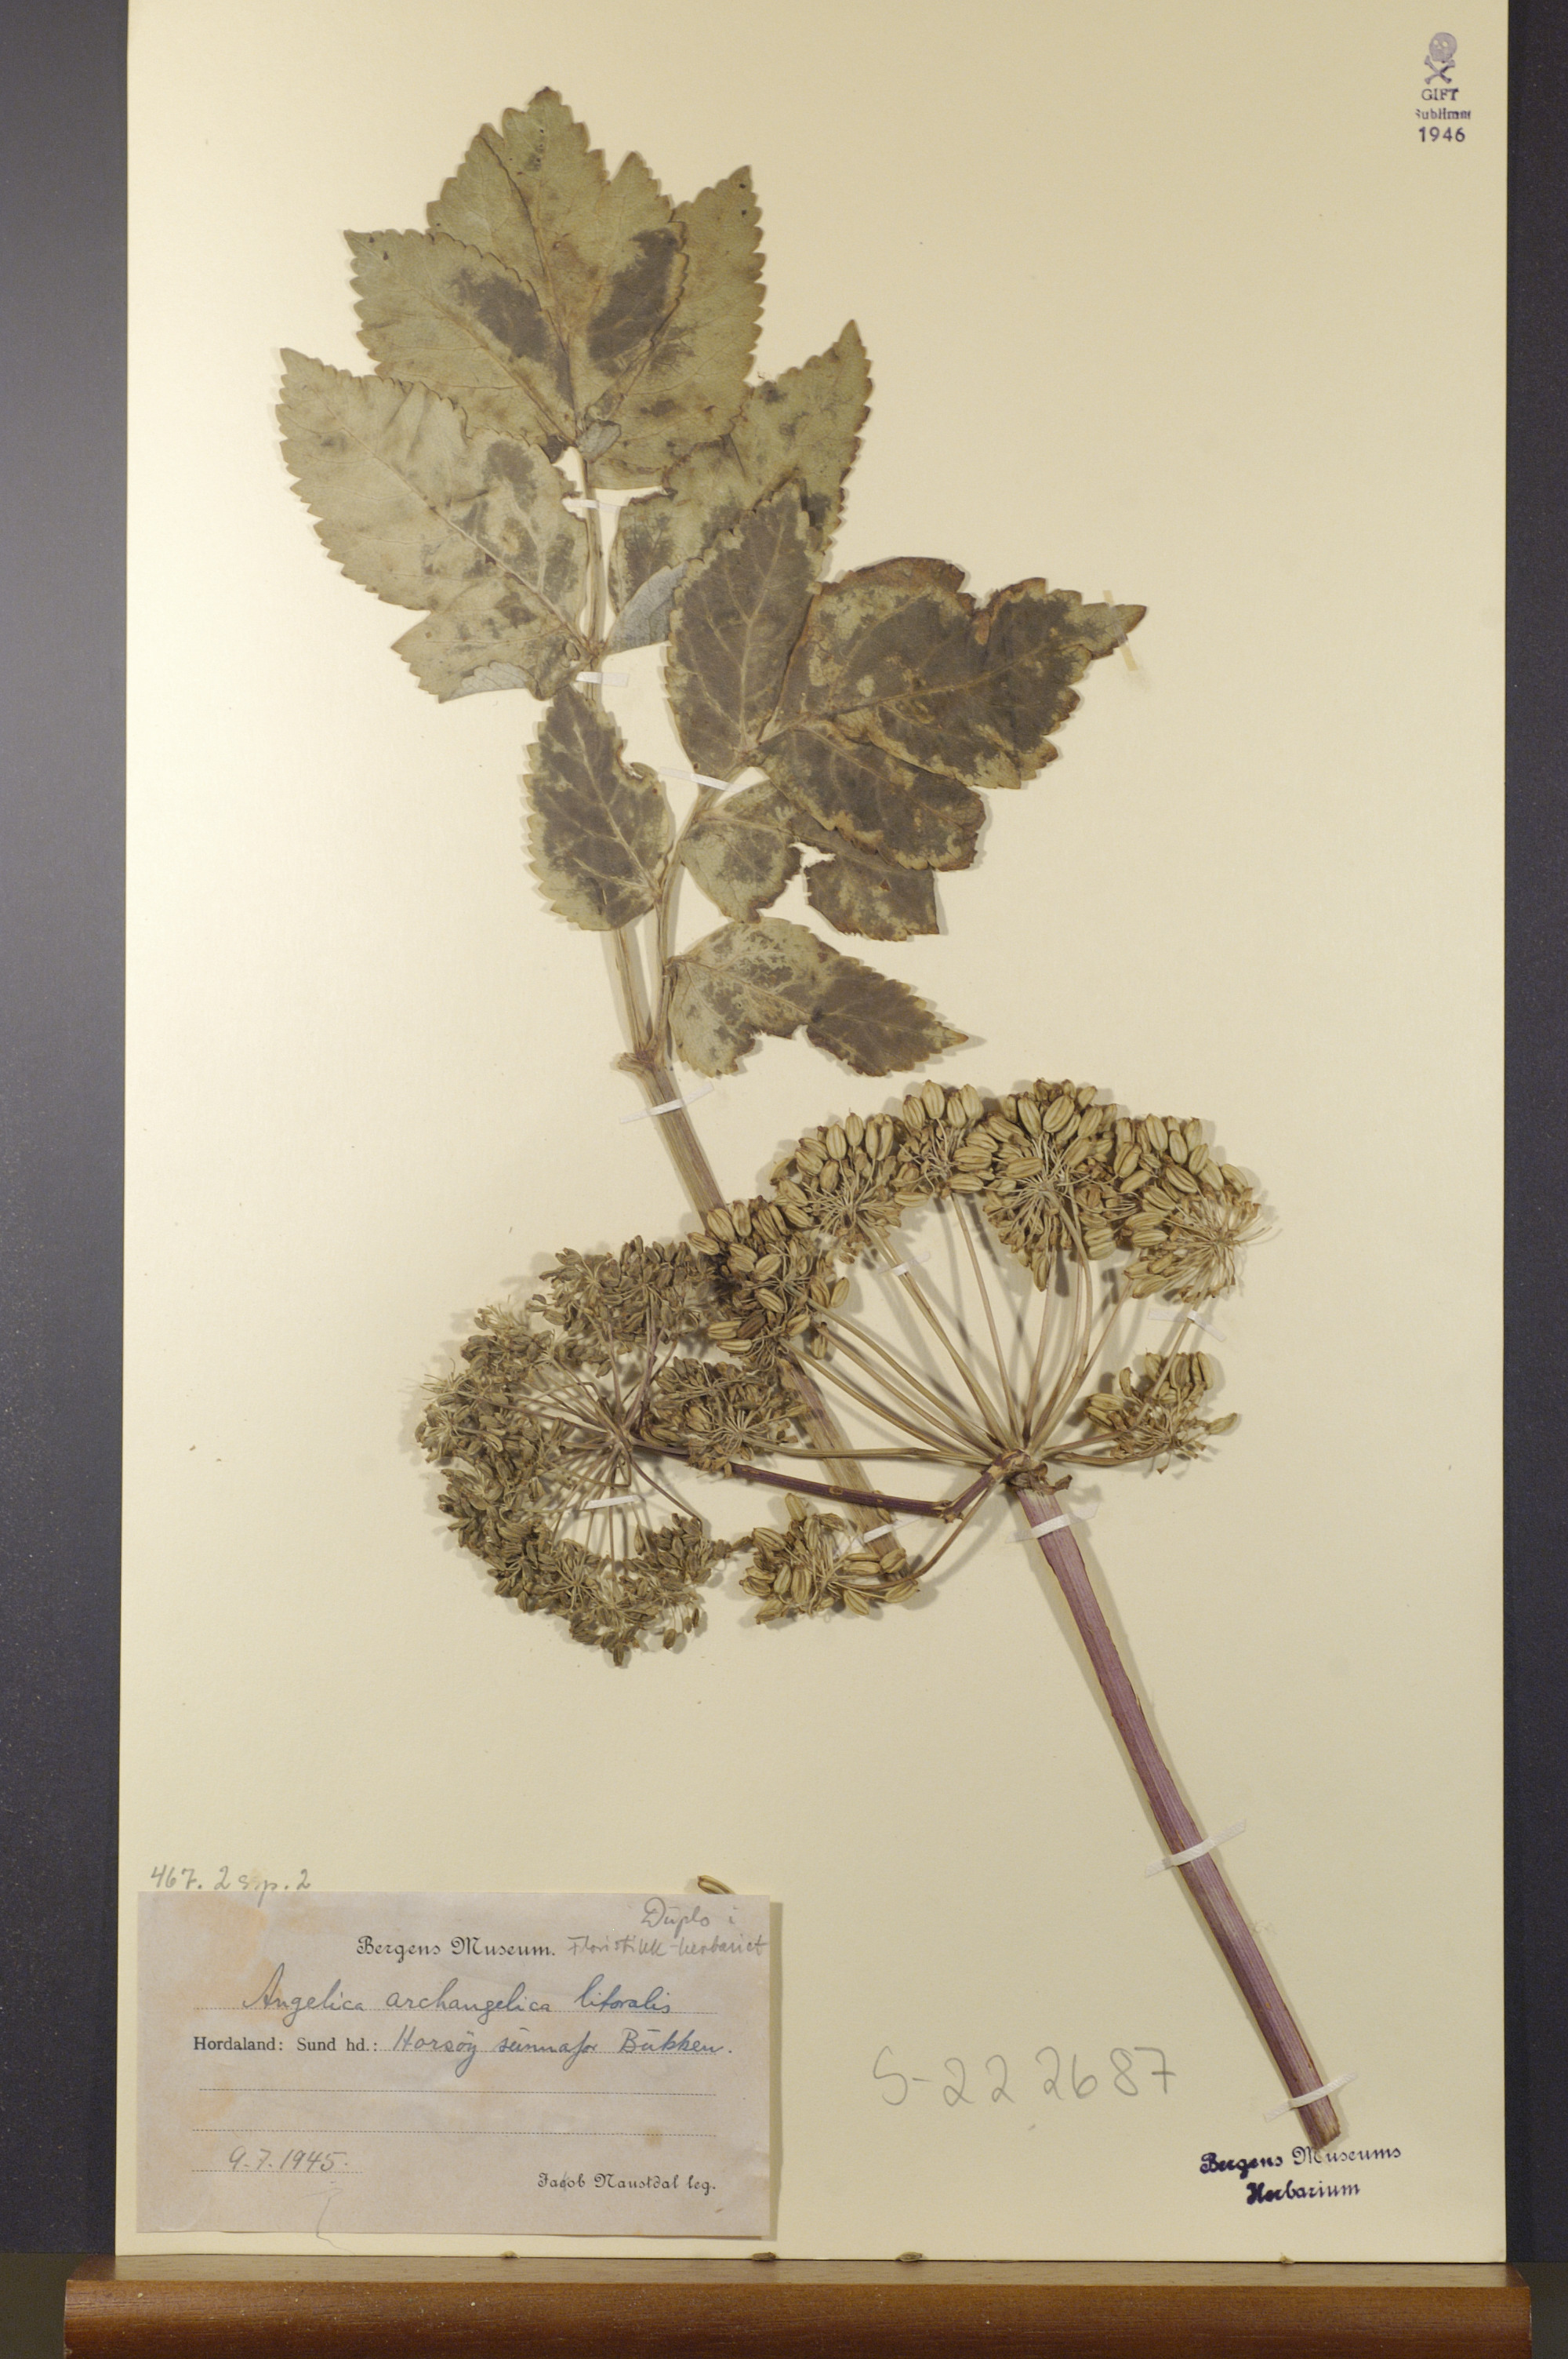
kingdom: Plantae
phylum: Tracheophyta
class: Magnoliopsida
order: Apiales
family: Apiaceae
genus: Angelica
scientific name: Angelica archangelica
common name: Garden angelica
